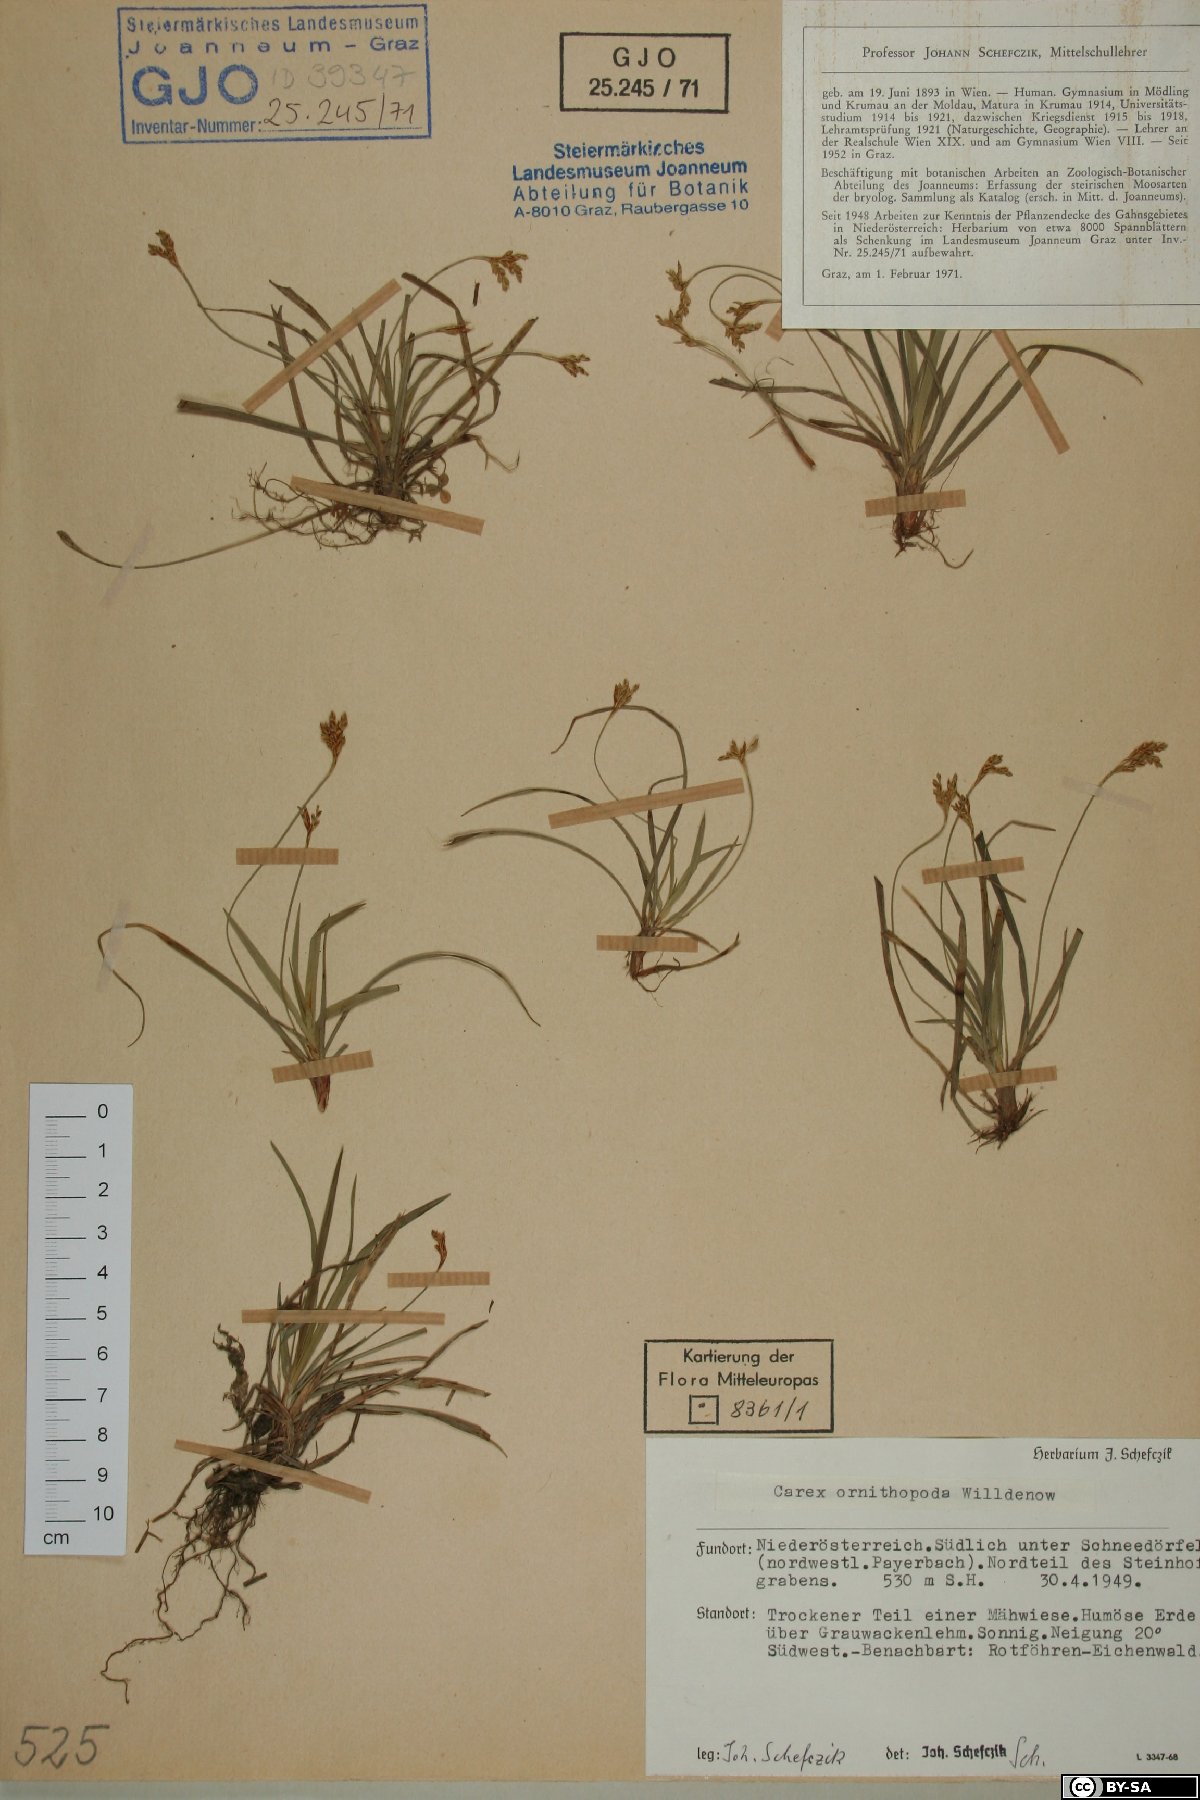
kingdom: Plantae
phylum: Tracheophyta
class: Liliopsida
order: Poales
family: Cyperaceae
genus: Carex
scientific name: Carex ornithopoda
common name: Bird's-foot sedge
